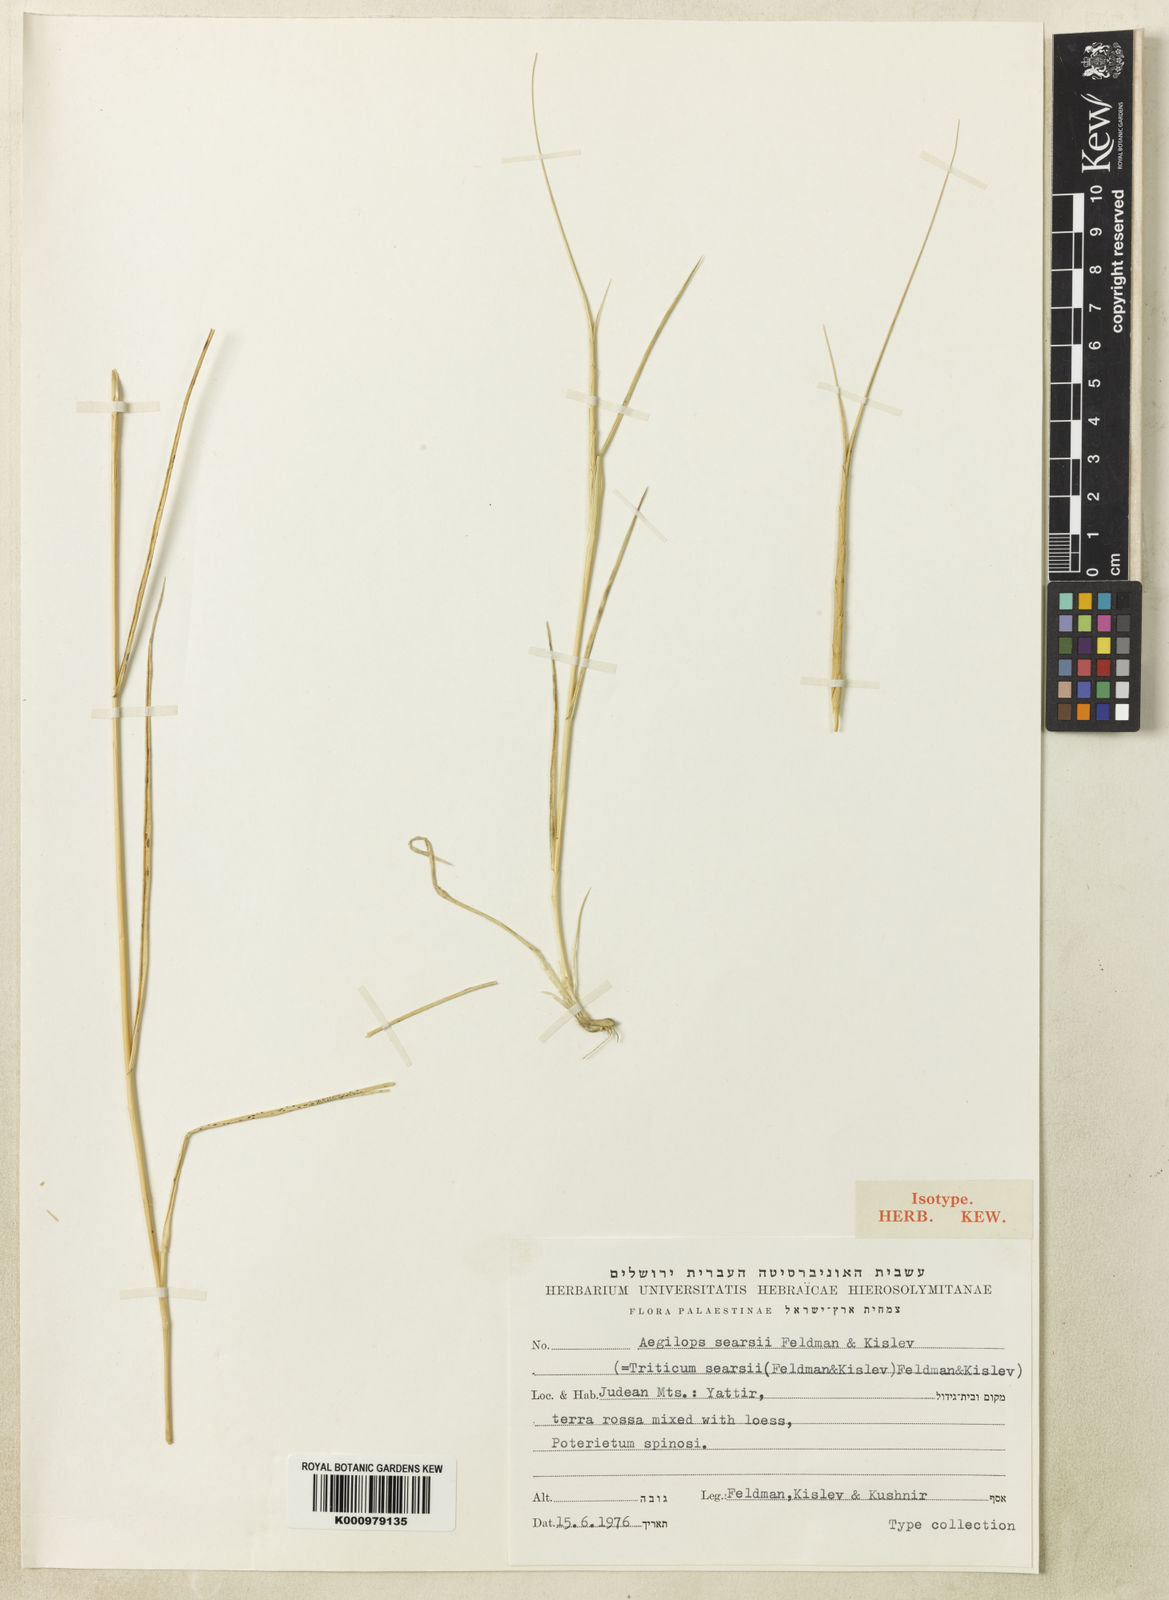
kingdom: Plantae
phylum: Tracheophyta
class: Liliopsida
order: Poales
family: Poaceae
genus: Aegilops
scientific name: Aegilops searsii
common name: Sears' goatgrass
